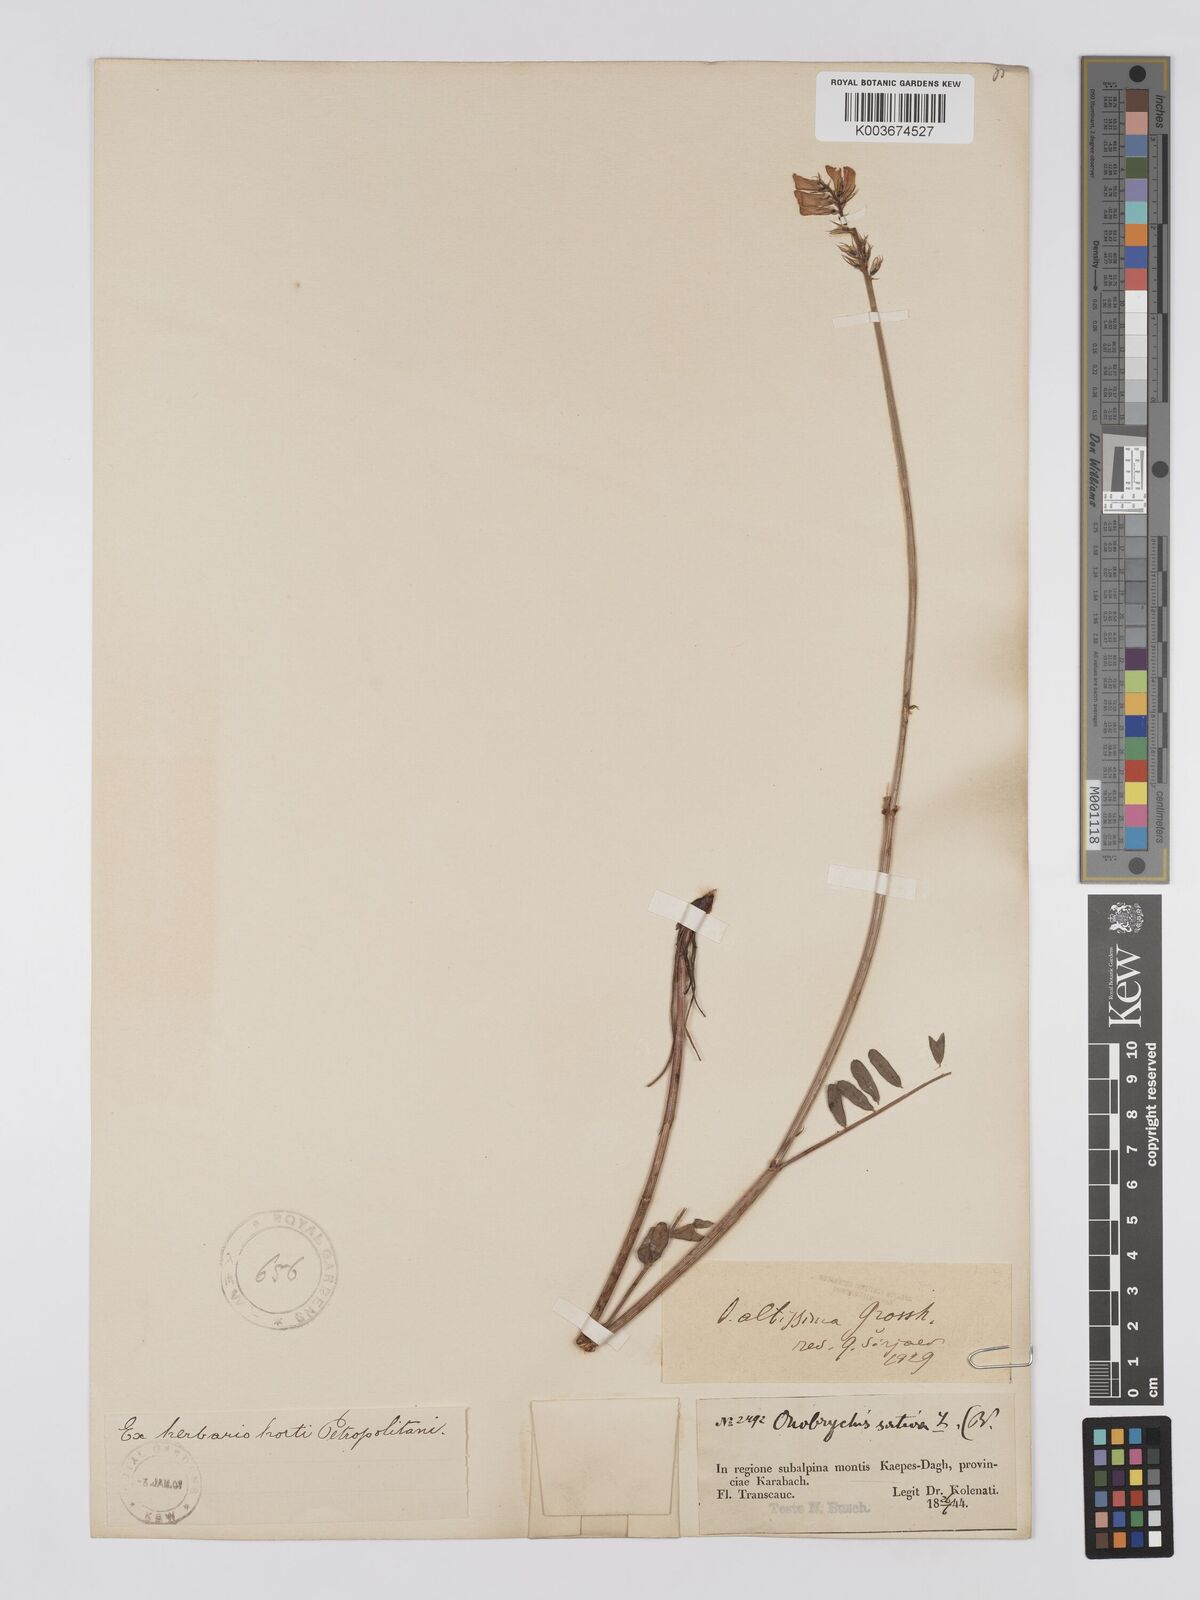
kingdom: Plantae
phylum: Tracheophyta
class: Magnoliopsida
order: Fabales
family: Fabaceae
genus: Onobrychis
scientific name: Onobrychis altissima
